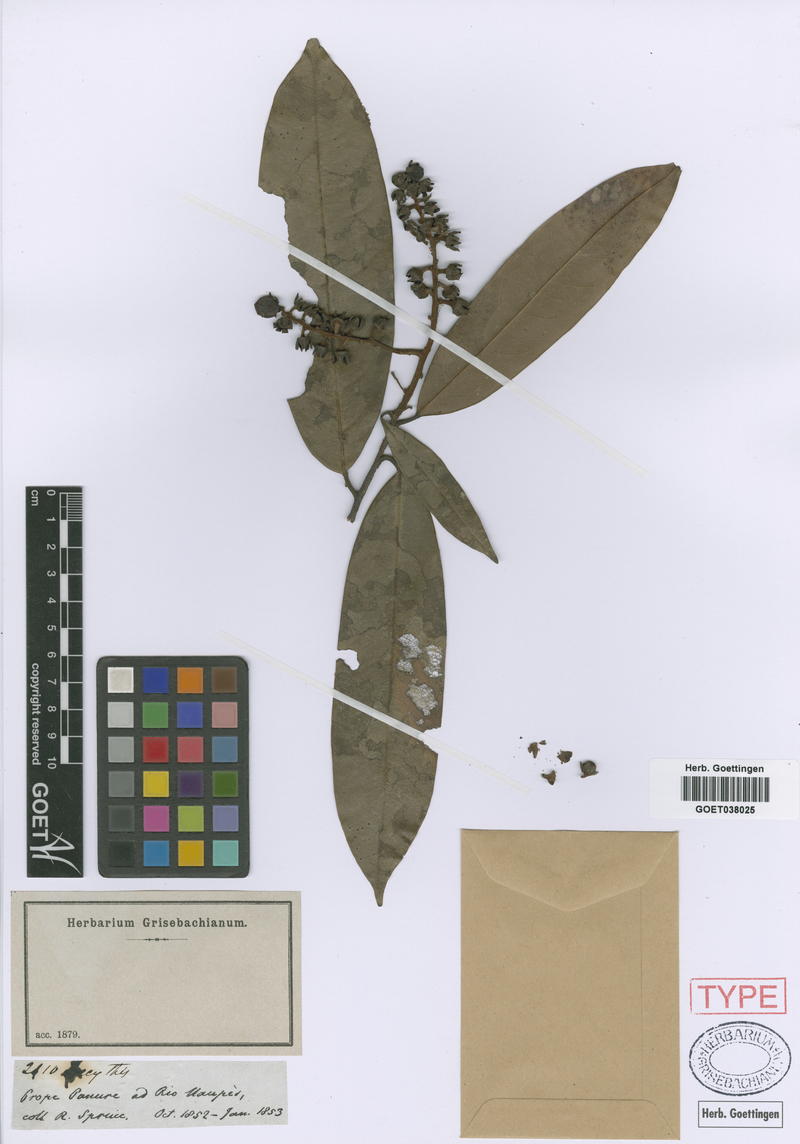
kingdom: Plantae
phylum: Tracheophyta
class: Magnoliopsida
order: Ericales
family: Lecythidaceae
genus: Eschweilera
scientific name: Eschweilera paniculata
